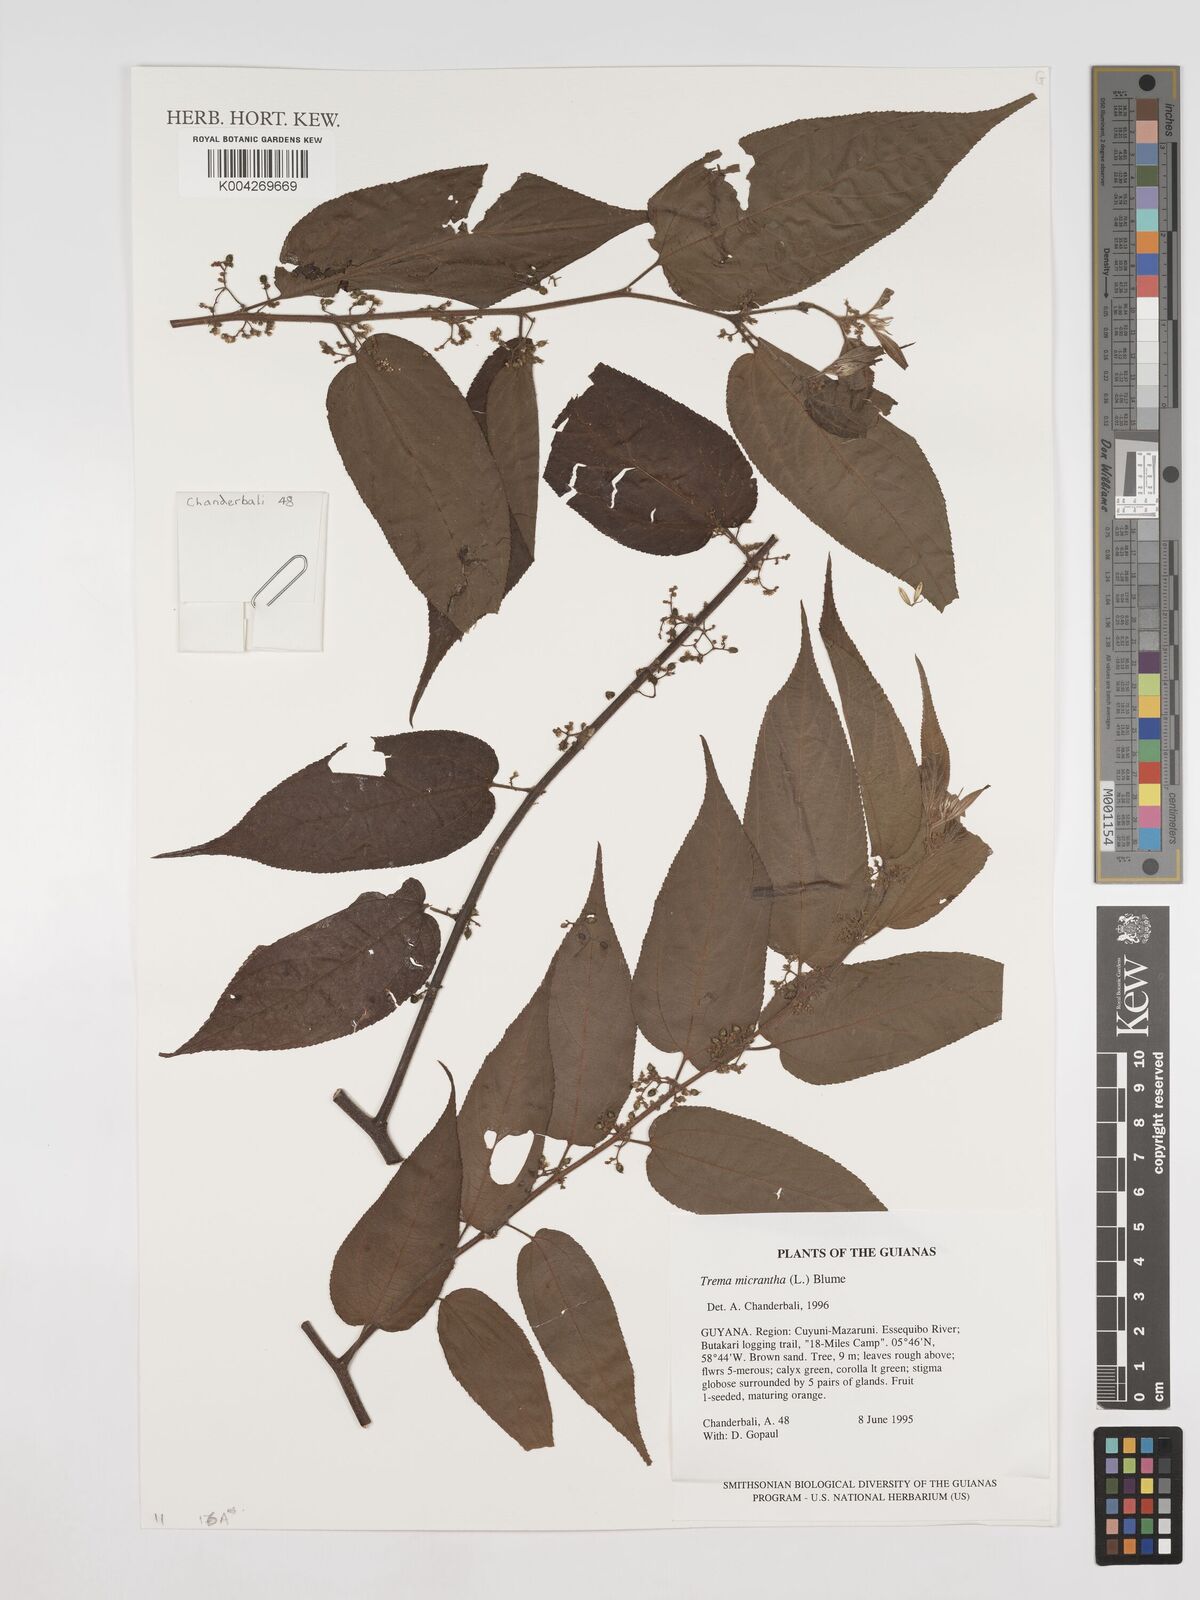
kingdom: Plantae
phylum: Tracheophyta
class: Magnoliopsida
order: Rosales
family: Cannabaceae
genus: Trema
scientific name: Trema micranthum
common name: Jamaican nettletree
